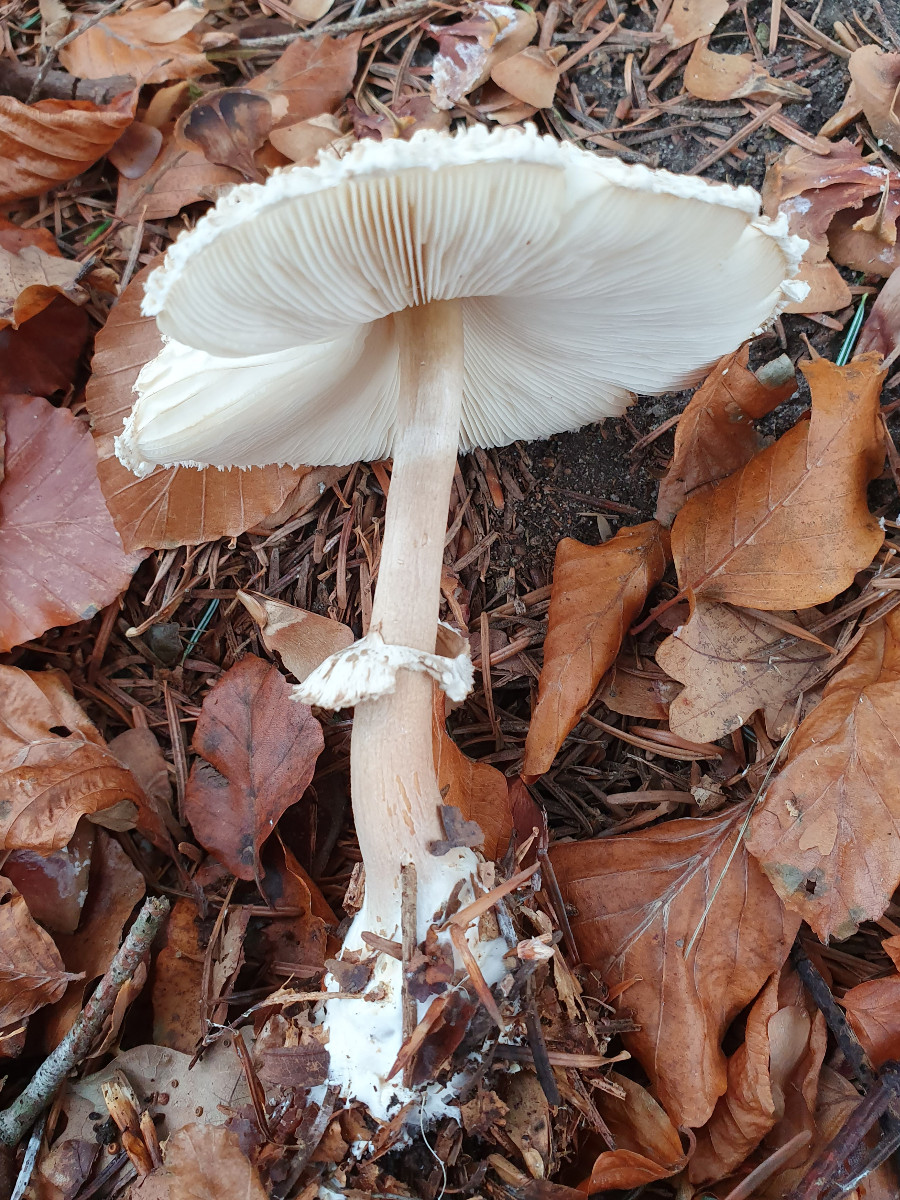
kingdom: Fungi
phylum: Basidiomycota
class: Agaricomycetes
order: Agaricales
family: Agaricaceae
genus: Leucoagaricus
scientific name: Leucoagaricus nympharum
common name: gran-silkehat
